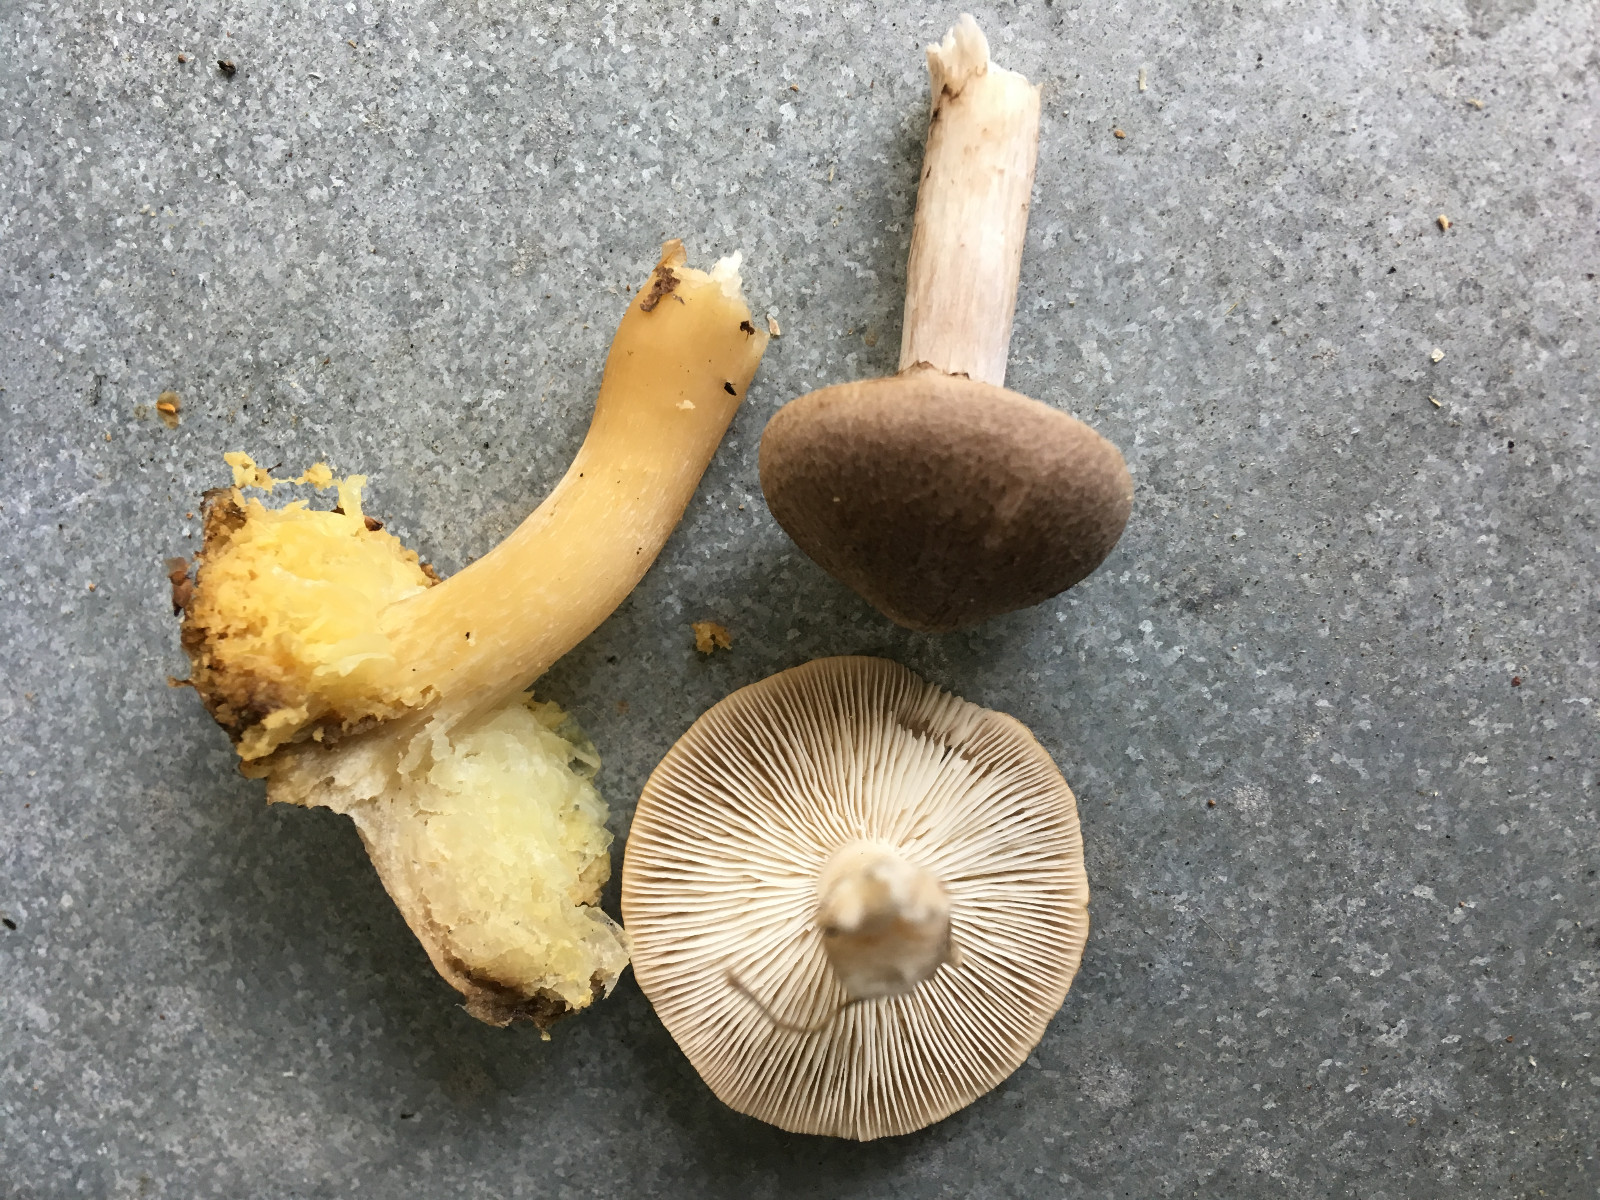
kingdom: Fungi
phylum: Basidiomycota
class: Agaricomycetes
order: Agaricales
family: Tricholomataceae
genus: Tricholoma
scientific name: Tricholoma scalpturatum
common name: gulplettet ridderhat
